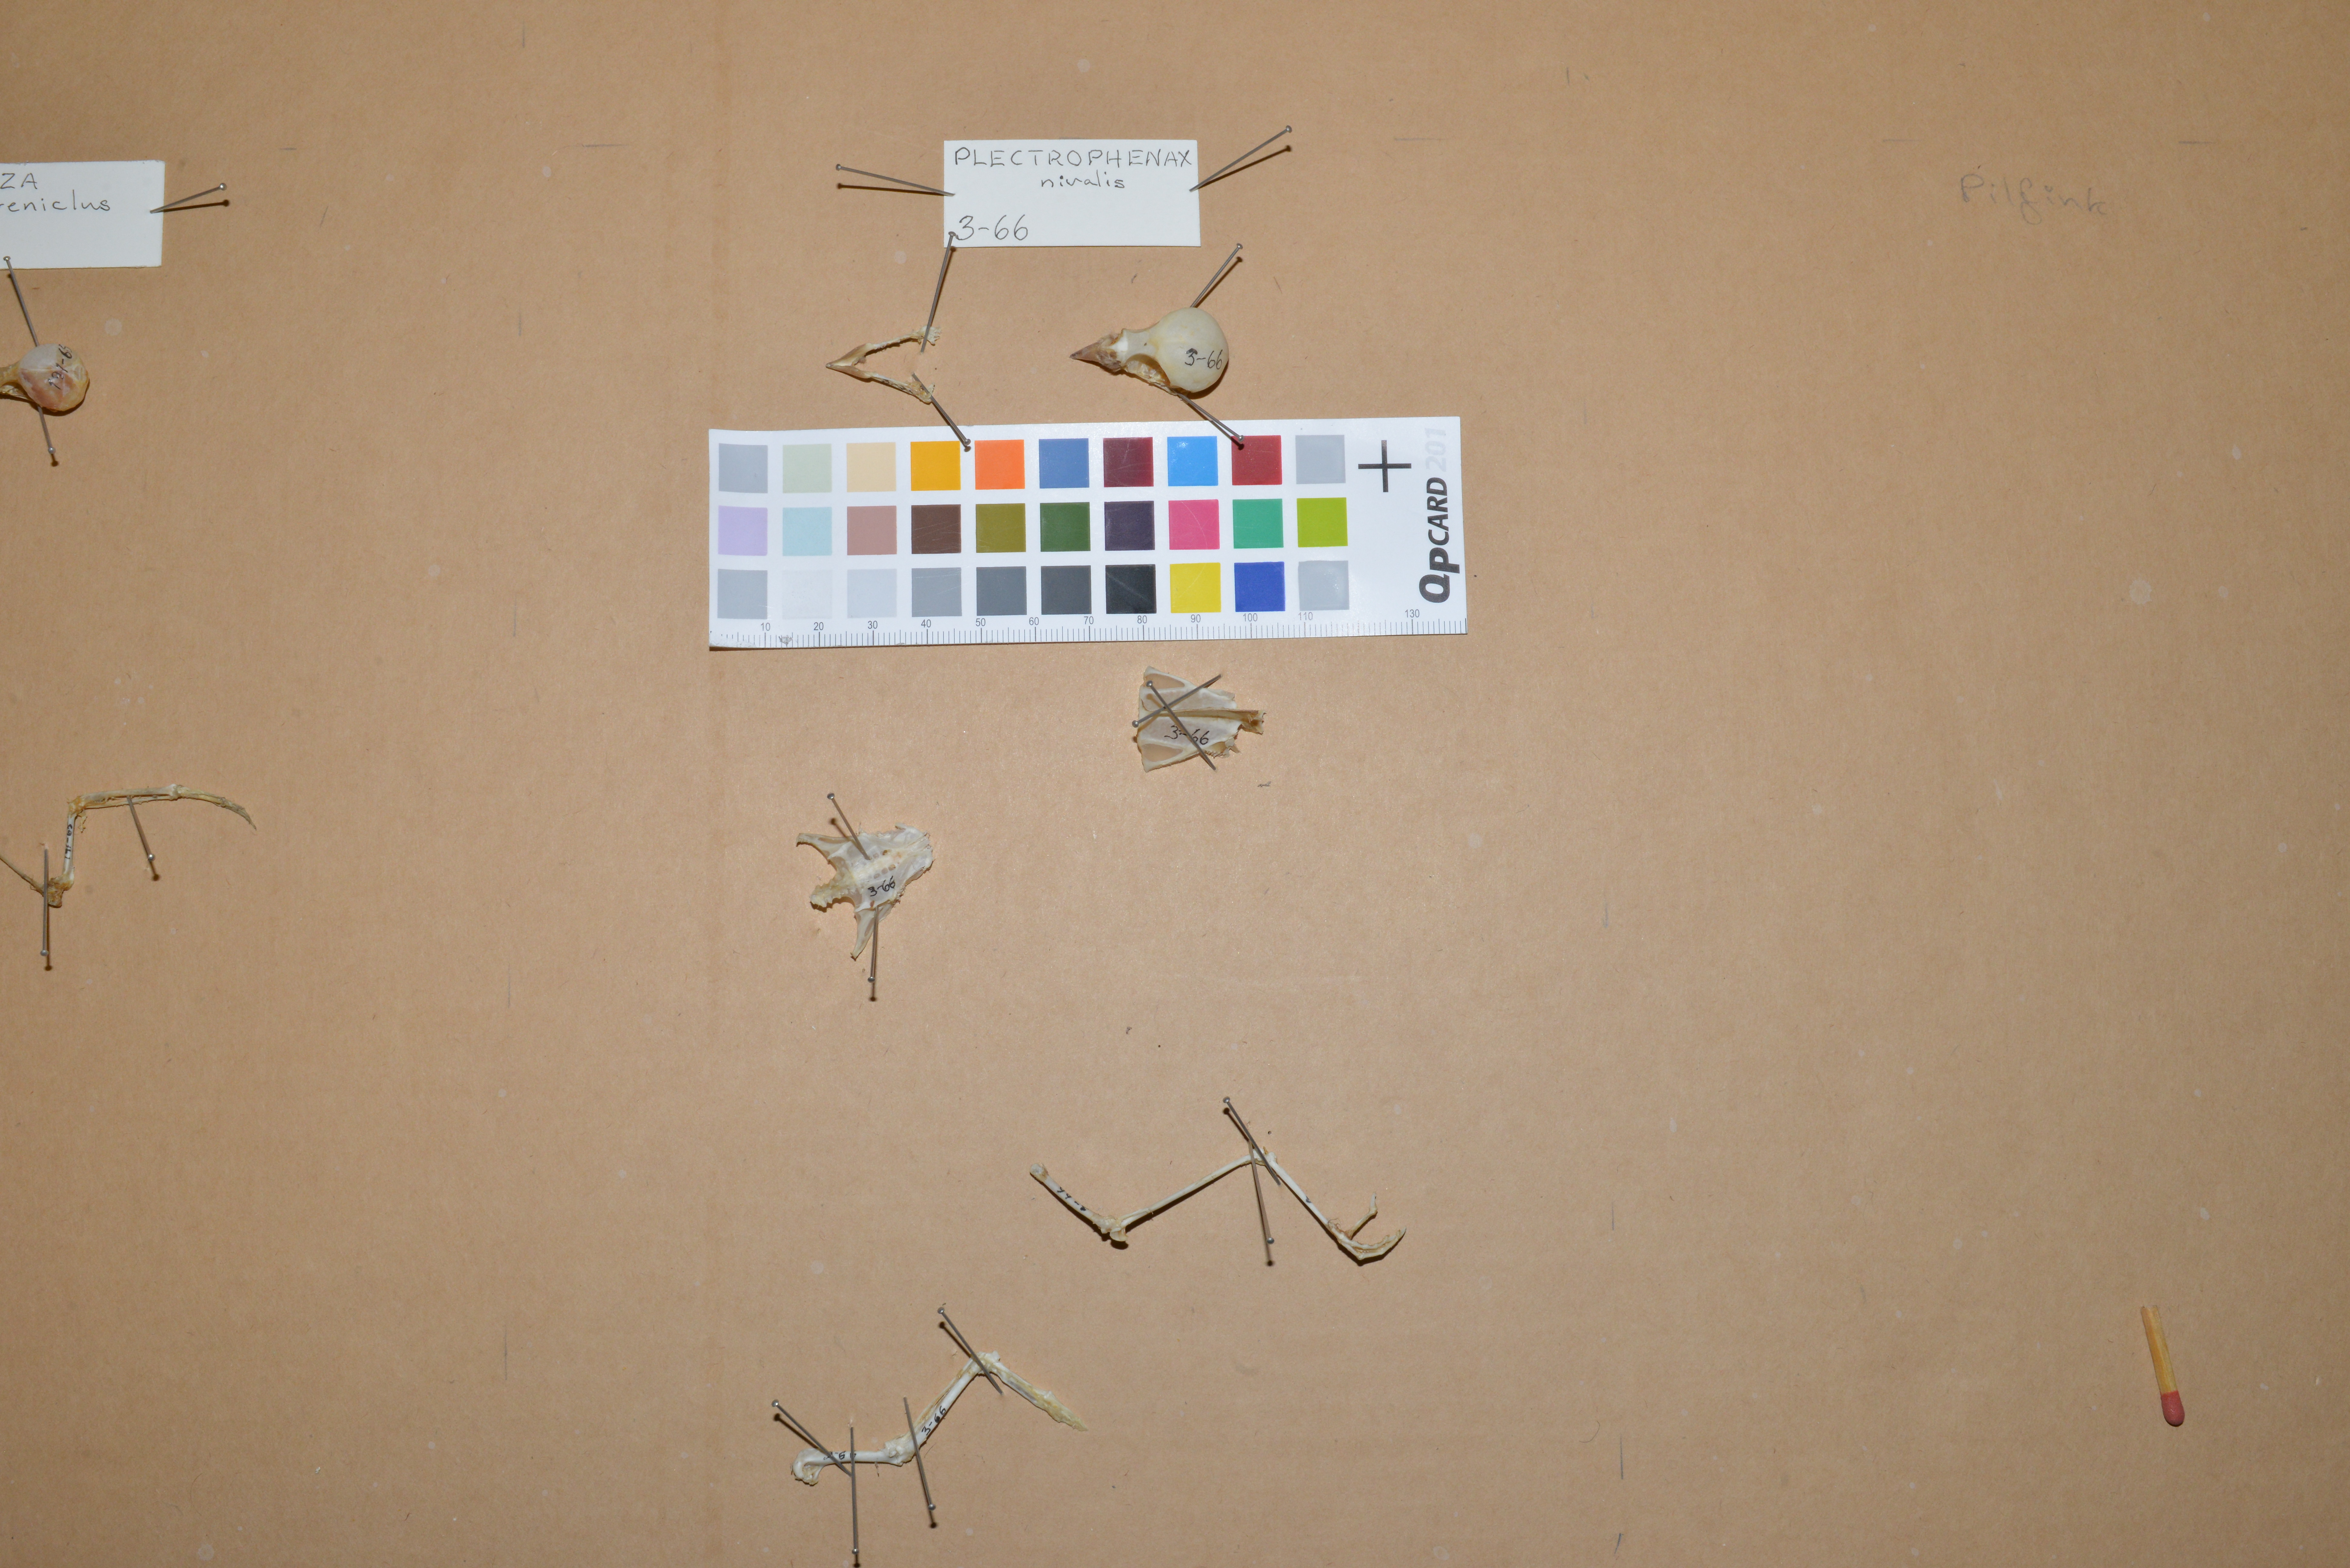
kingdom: Animalia
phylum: Chordata
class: Aves
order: Passeriformes
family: Calcariidae
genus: Plectrophenax
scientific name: Plectrophenax nivalis
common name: Snow bunting
